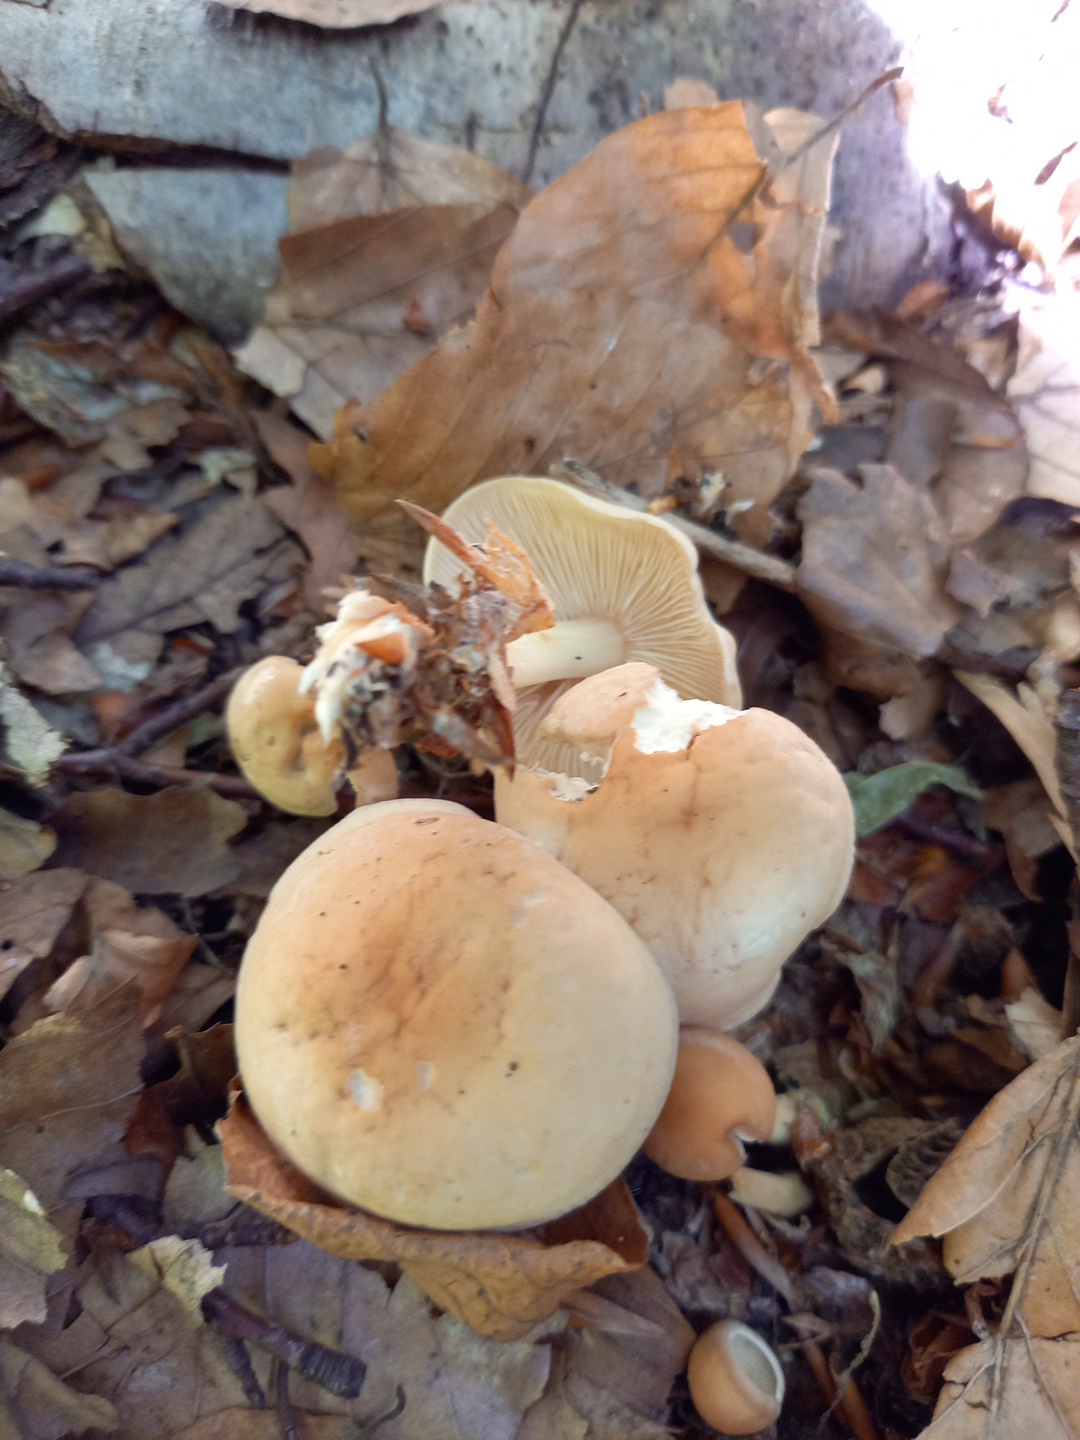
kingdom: Fungi
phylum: Basidiomycota
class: Agaricomycetes
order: Agaricales
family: Omphalotaceae
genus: Gymnopus
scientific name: Gymnopus dryophilus
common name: løv-fladhat
